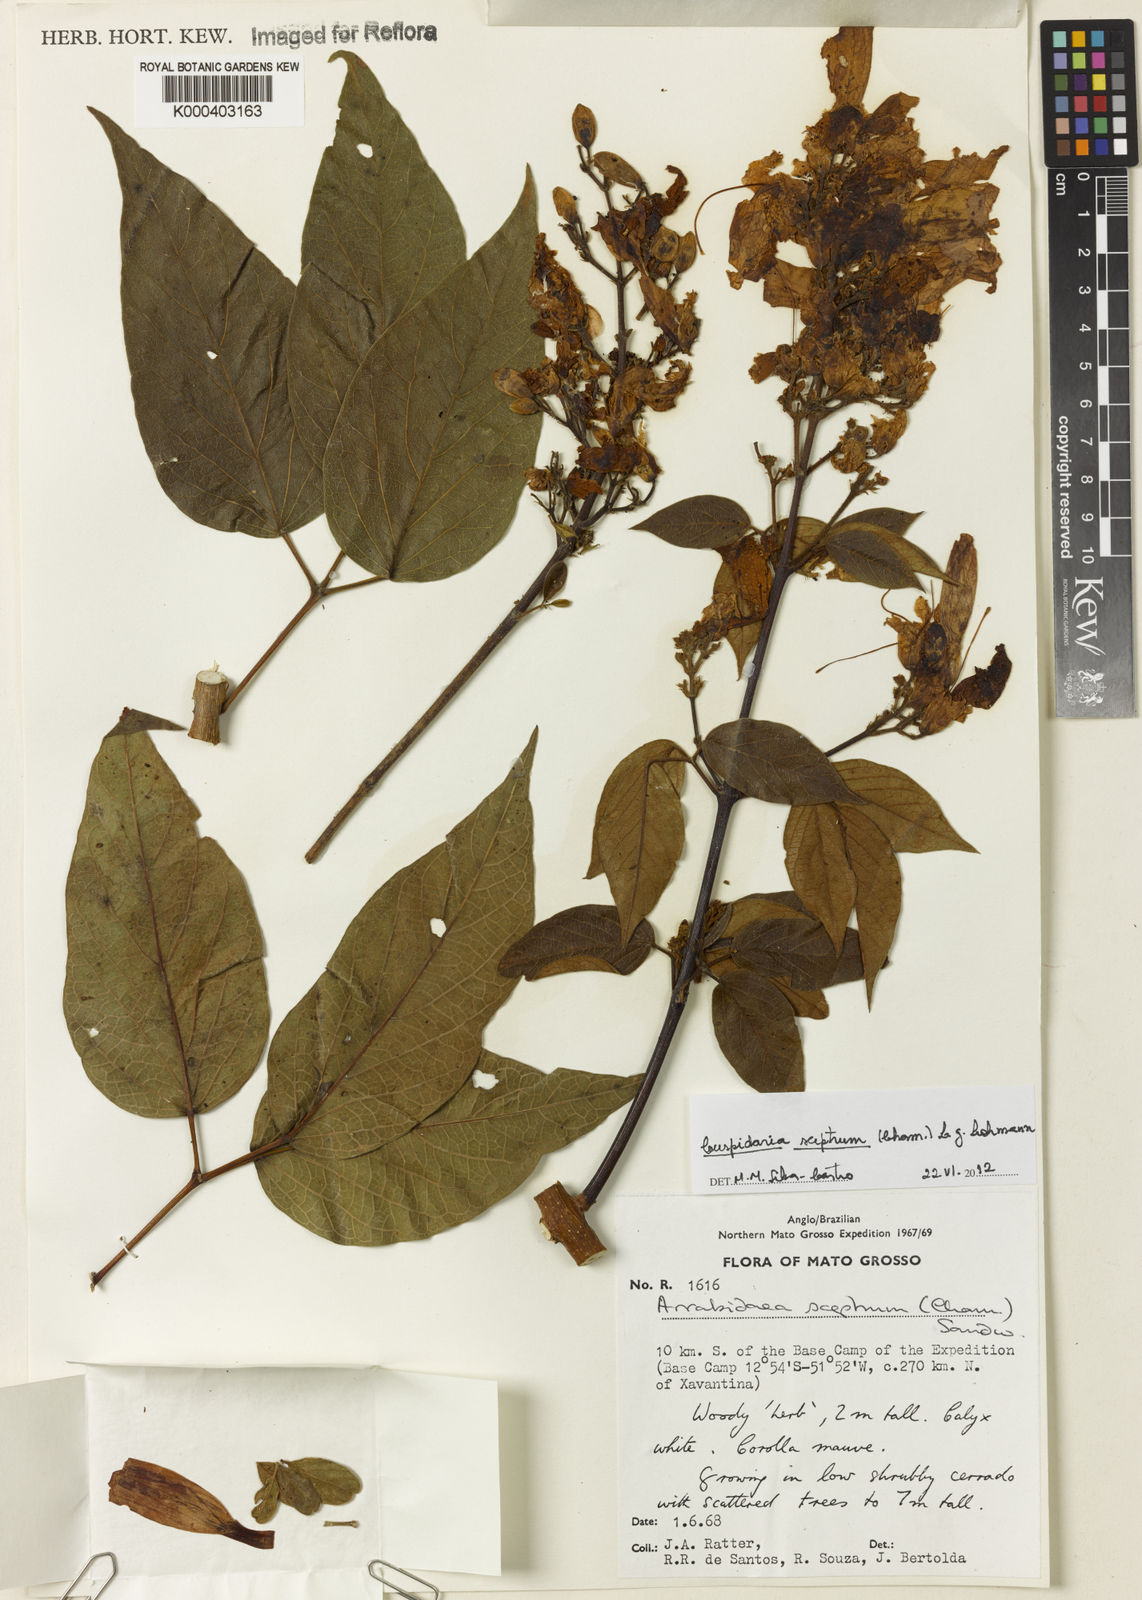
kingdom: Plantae
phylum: Tracheophyta
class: Magnoliopsida
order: Lamiales
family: Bignoniaceae
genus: Cuspidaria
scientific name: Cuspidaria sceptrum
